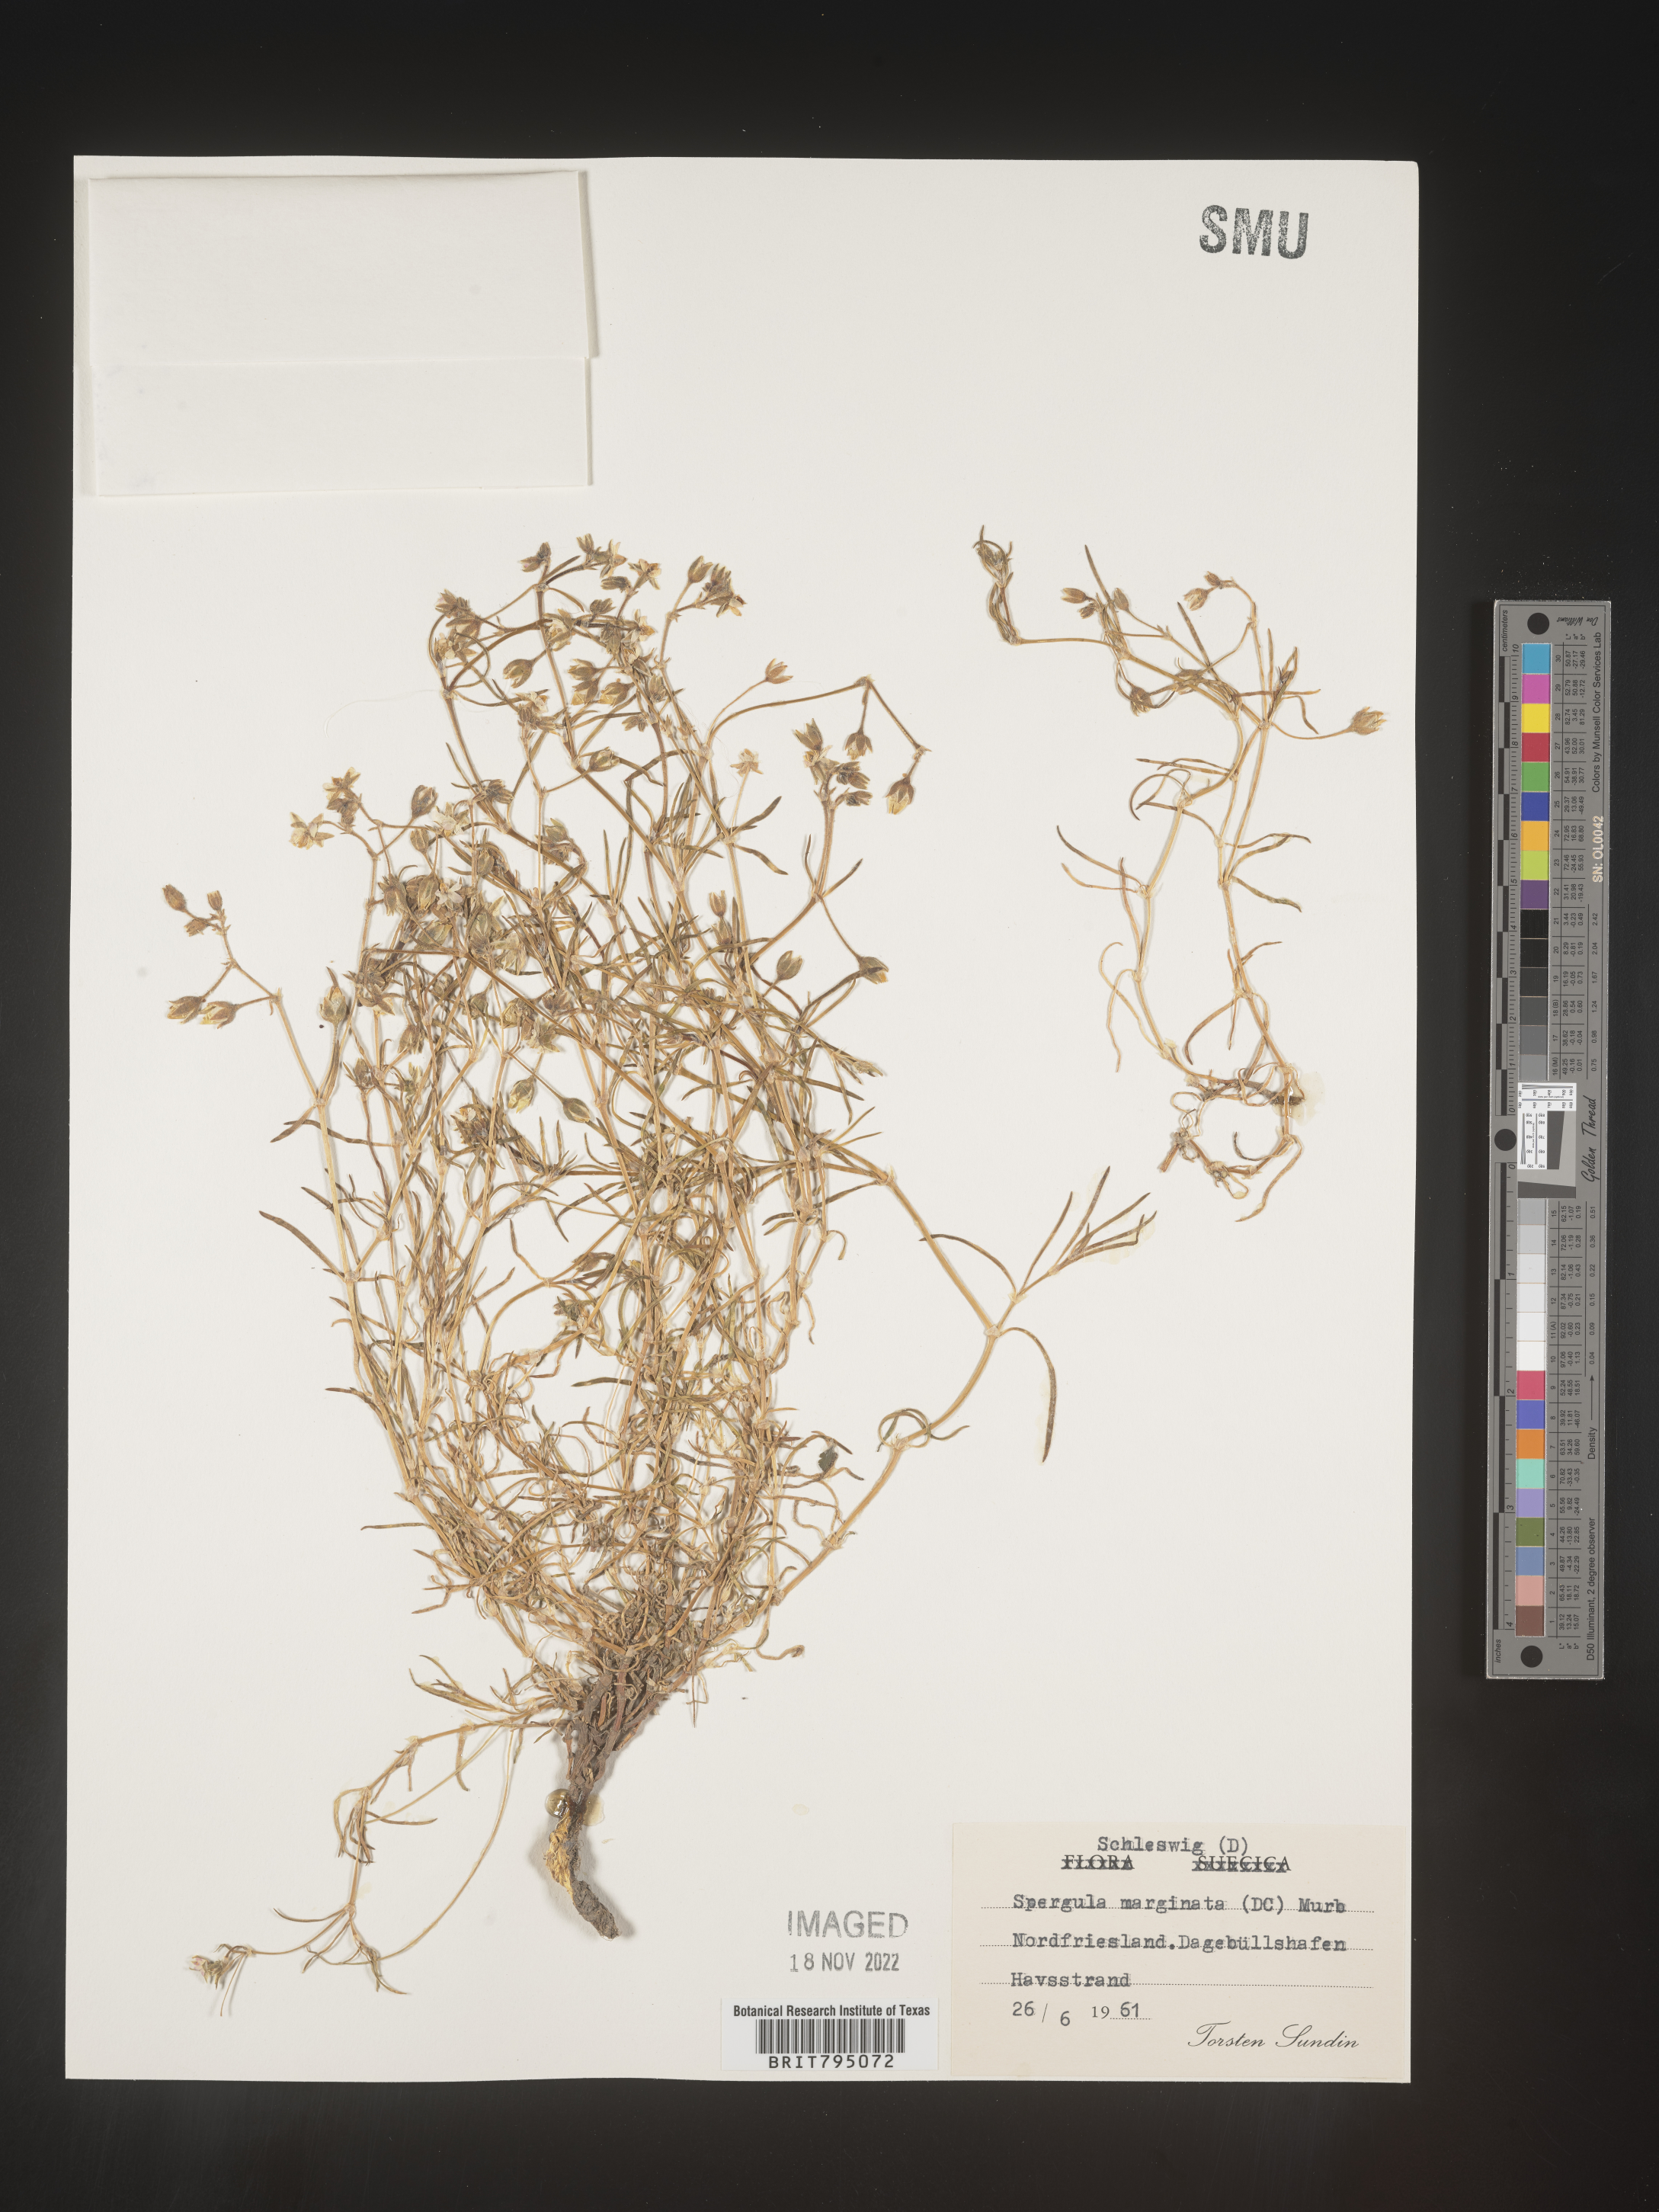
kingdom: Plantae
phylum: Tracheophyta
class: Magnoliopsida
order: Caryophyllales
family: Caryophyllaceae
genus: Spergularia
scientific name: Spergularia media
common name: Greater sea-spurrey
